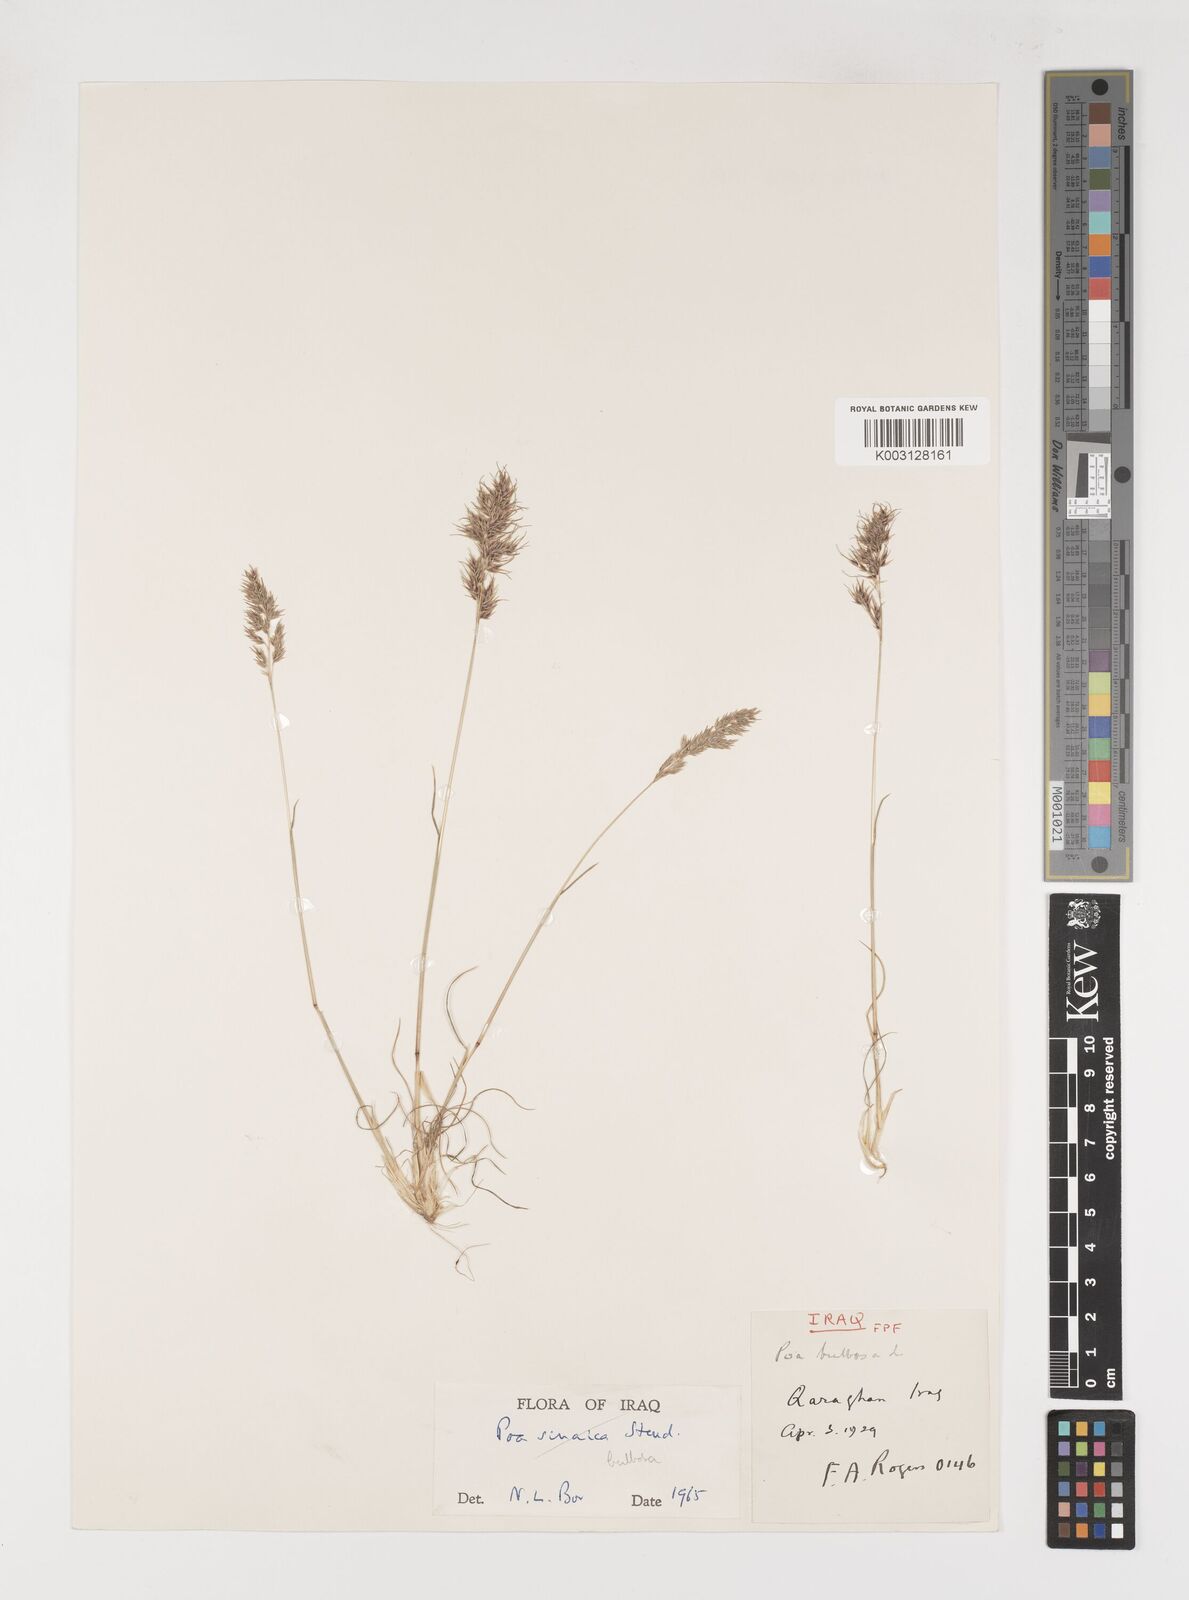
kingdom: Plantae
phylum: Tracheophyta
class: Liliopsida
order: Poales
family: Poaceae
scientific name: Poaceae
